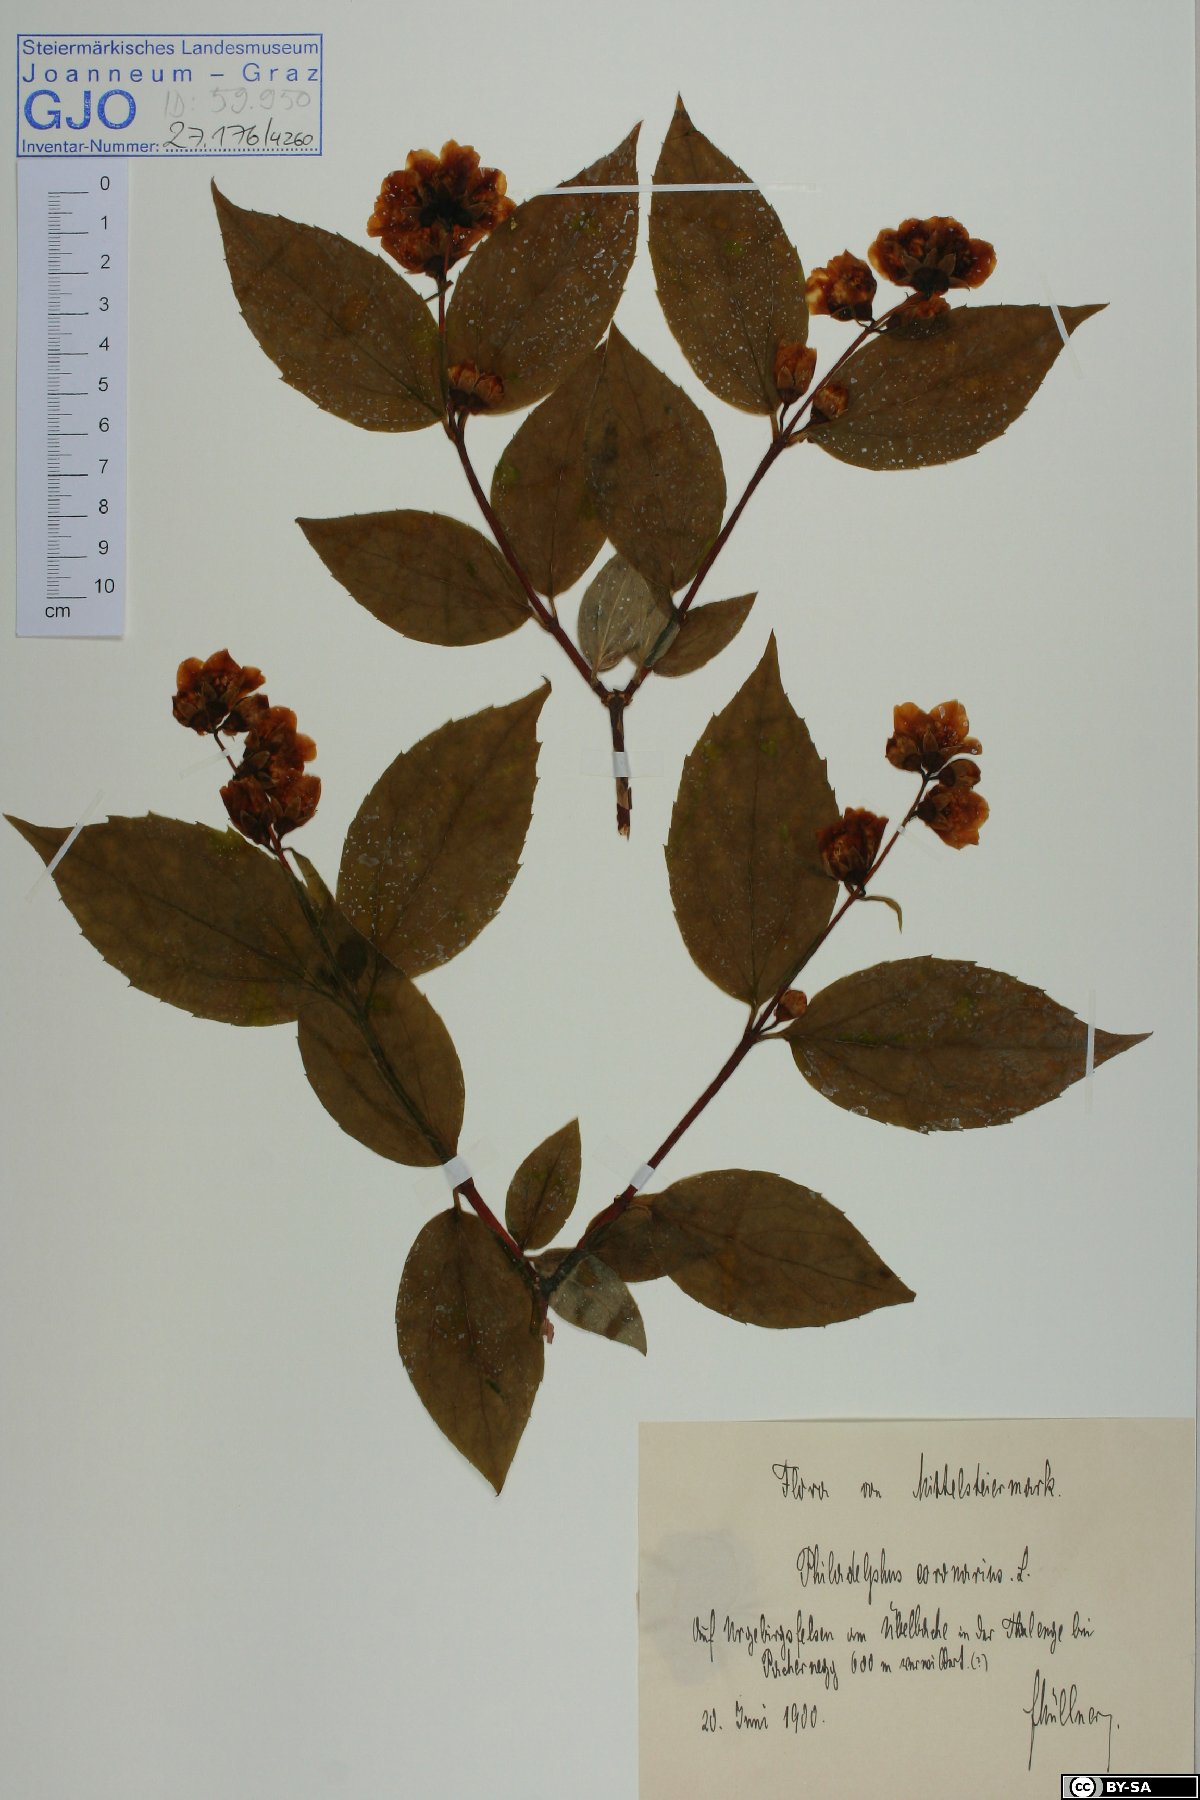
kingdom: Plantae
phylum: Tracheophyta
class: Magnoliopsida
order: Cornales
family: Hydrangeaceae
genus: Philadelphus
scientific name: Philadelphus coronarius
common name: Mock orange
